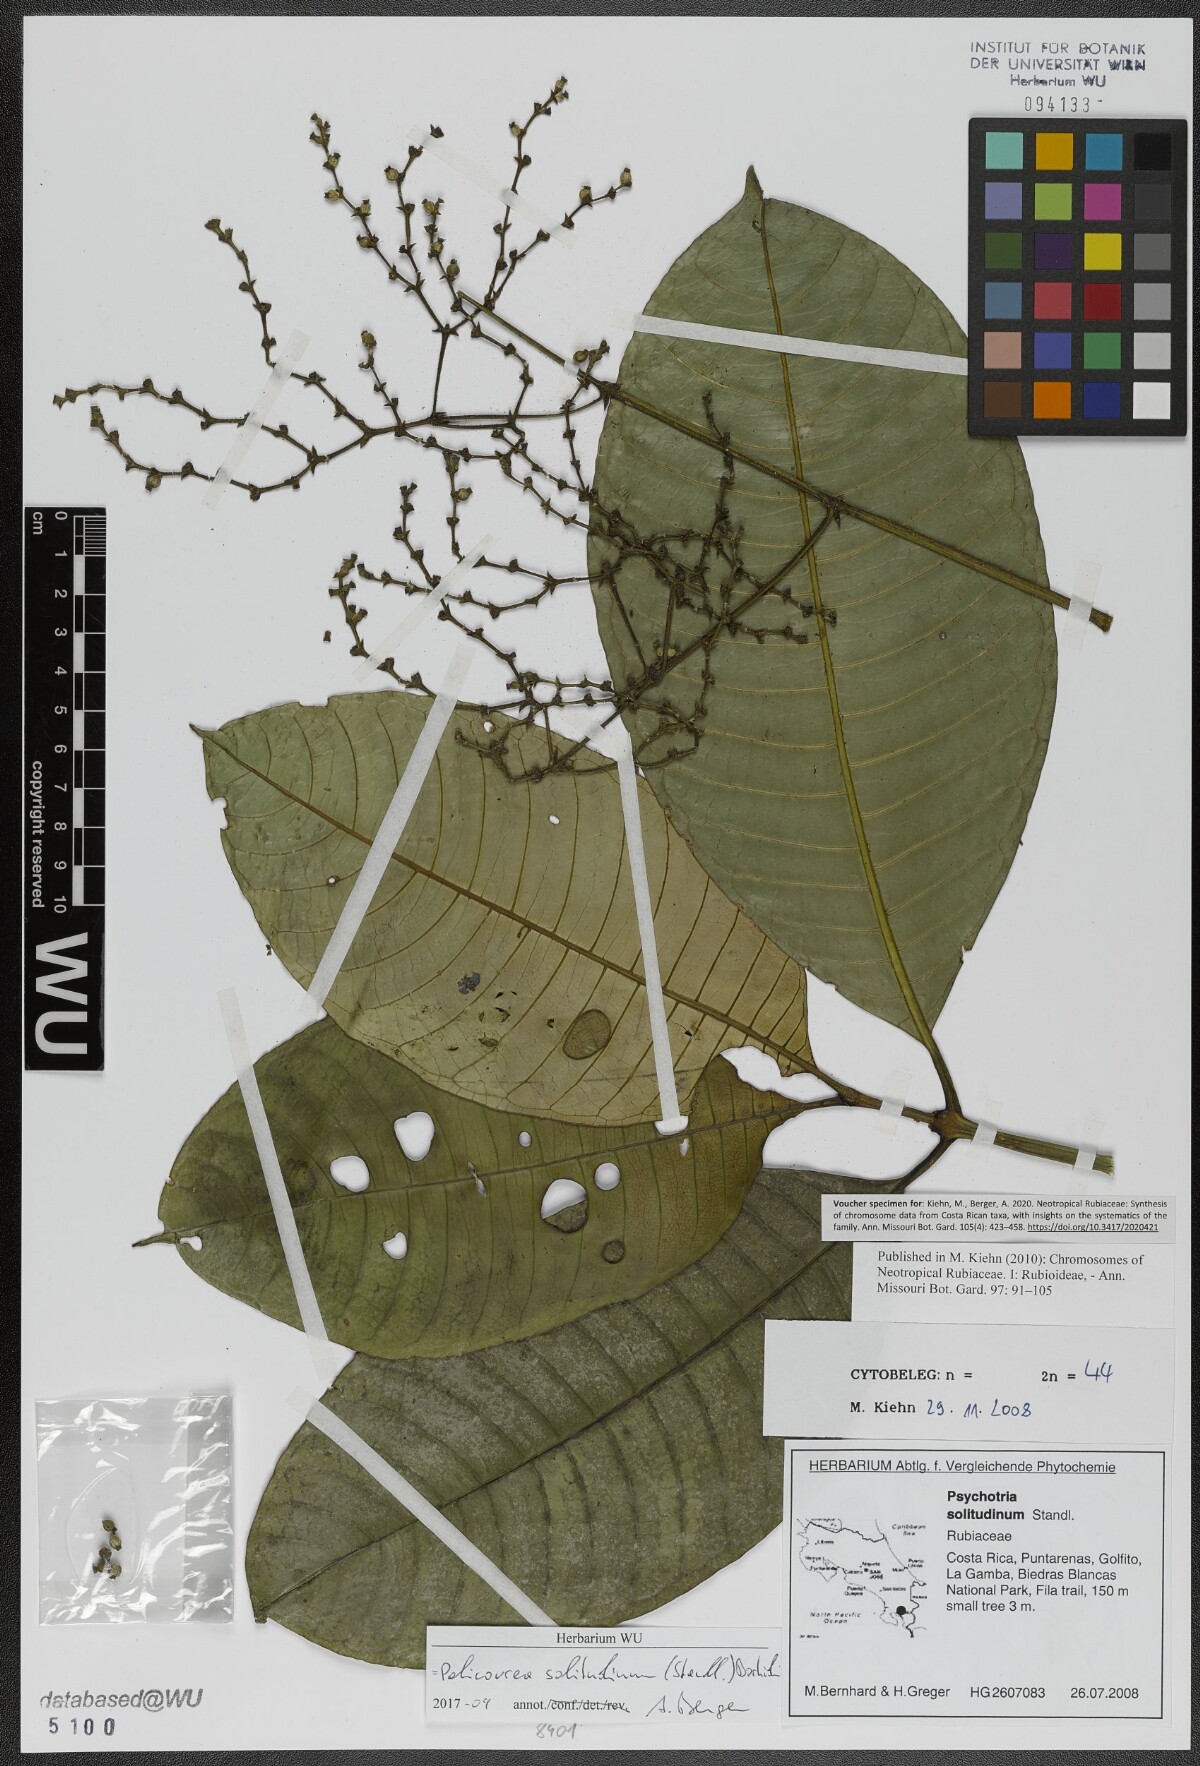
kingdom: Plantae
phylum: Tracheophyta
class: Magnoliopsida
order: Gentianales
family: Rubiaceae
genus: Palicourea
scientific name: Palicourea solitudinum
